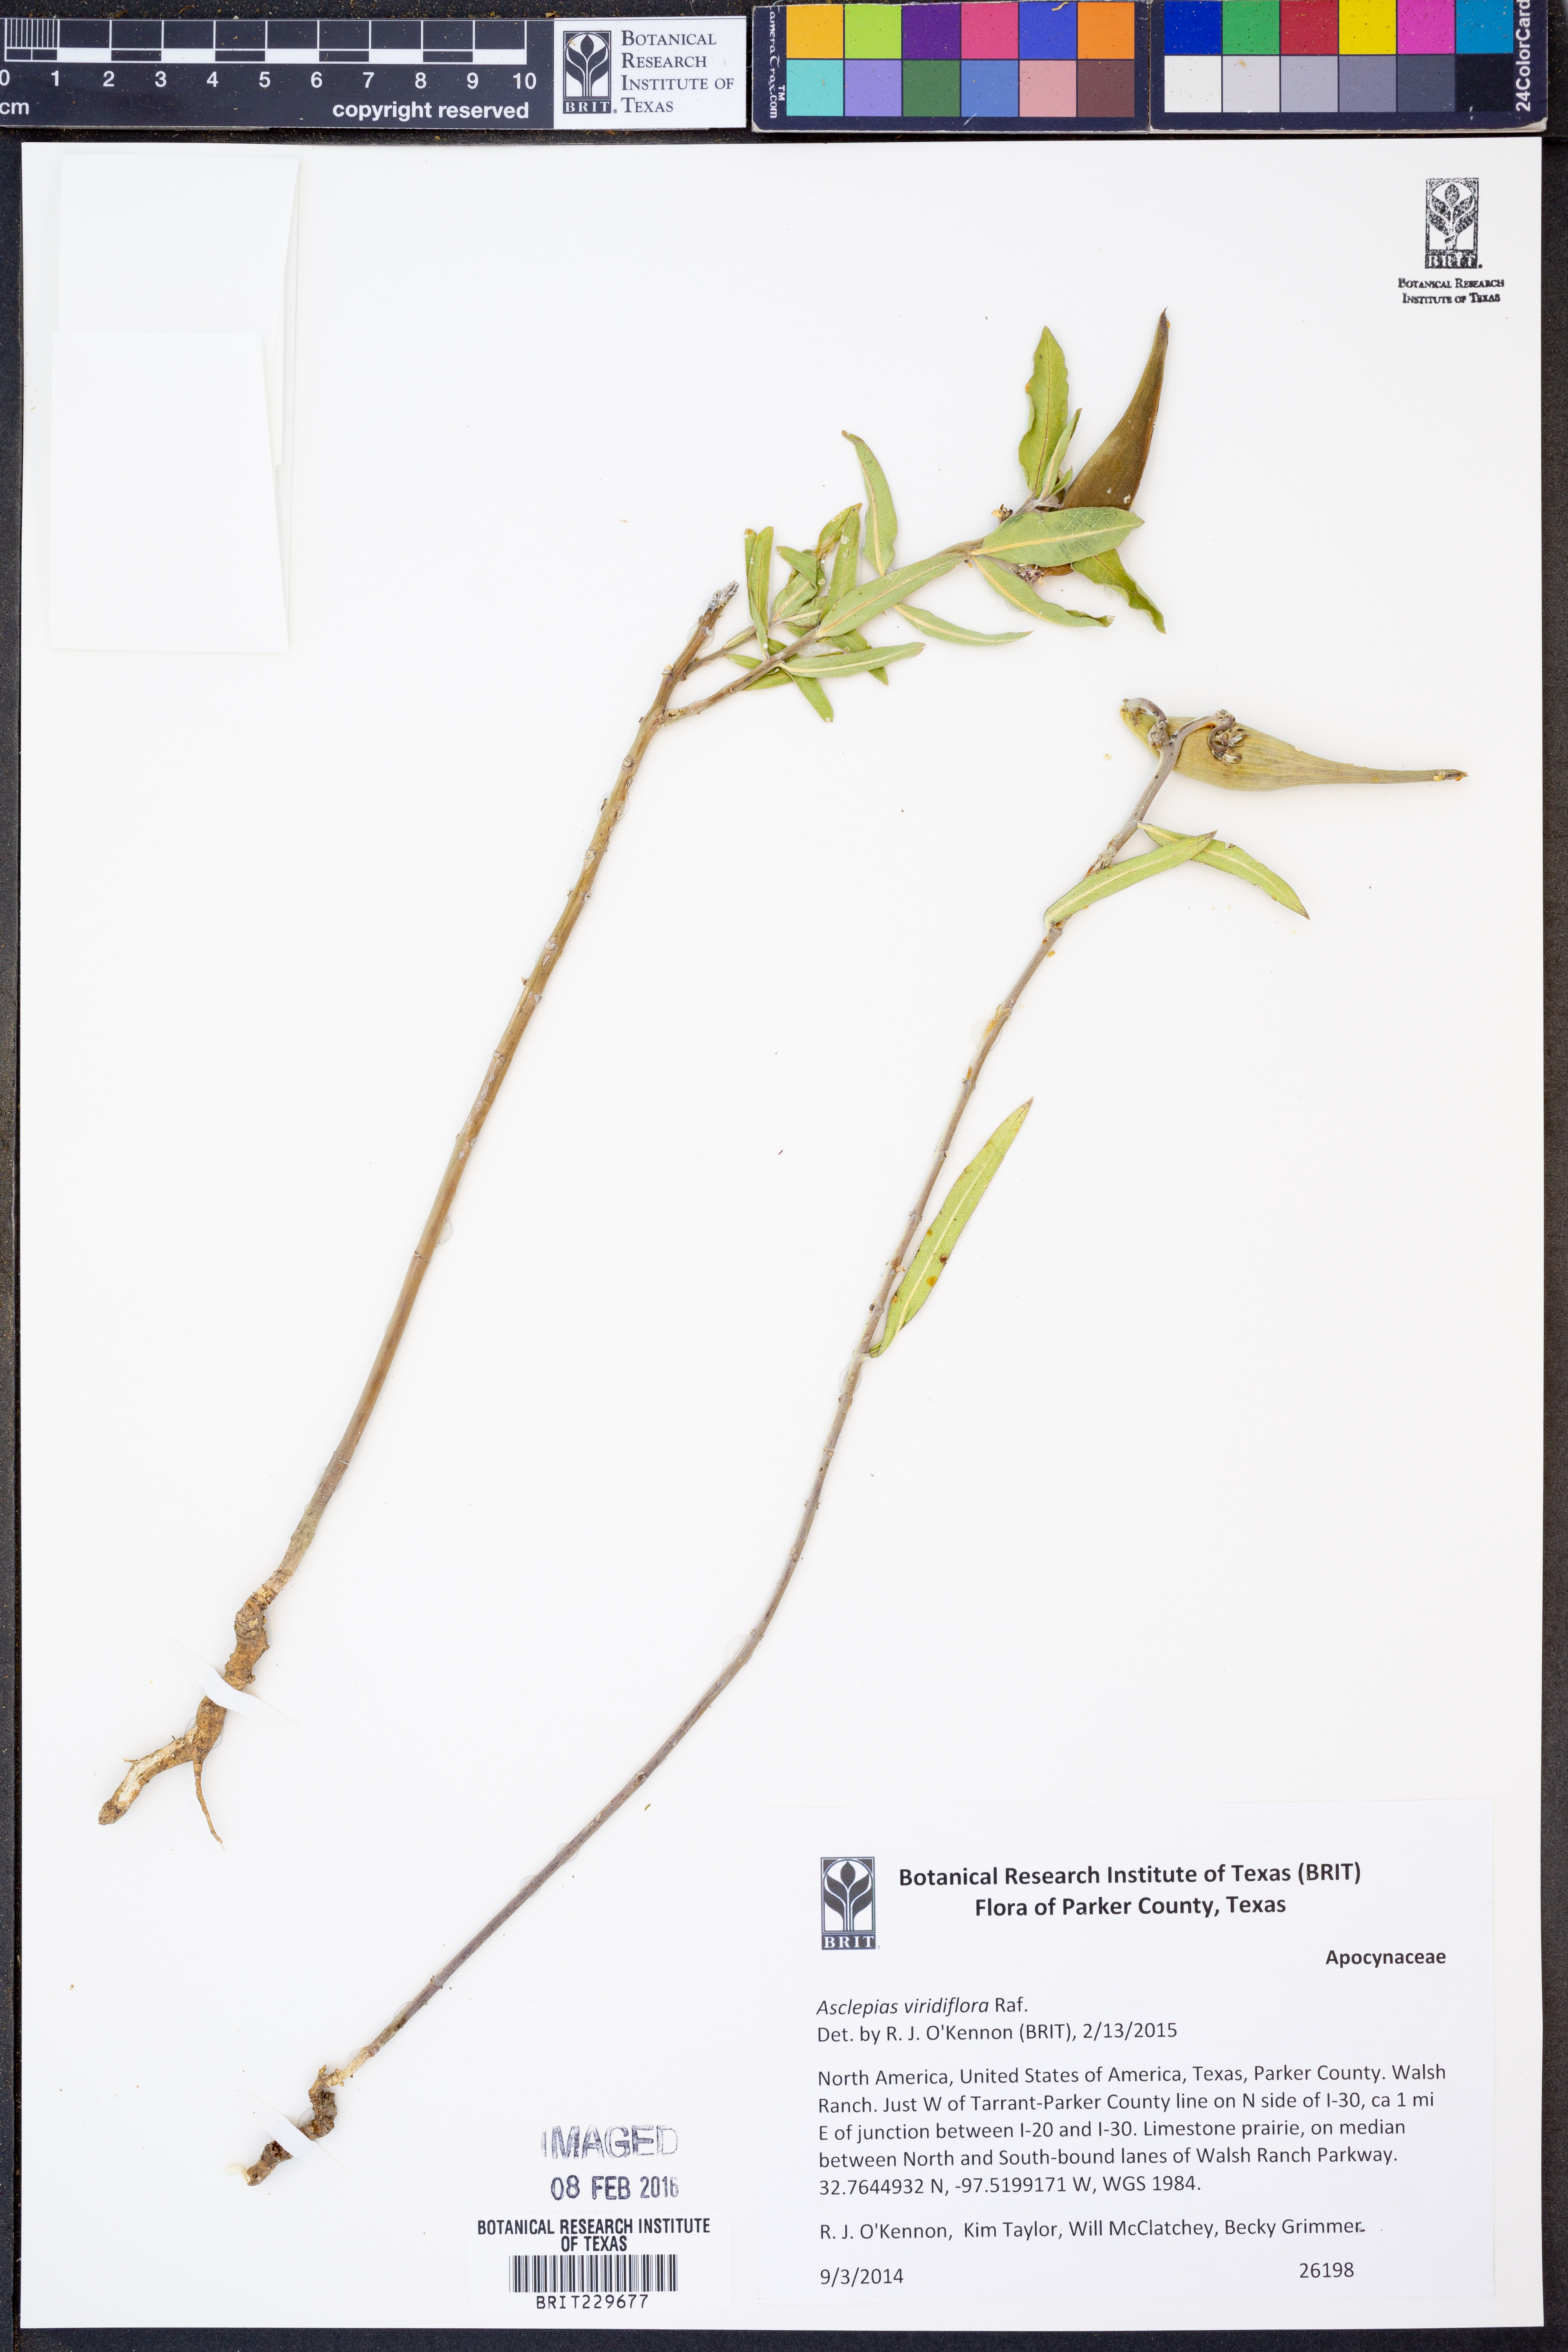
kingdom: Plantae
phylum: Tracheophyta
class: Magnoliopsida
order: Gentianales
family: Apocynaceae
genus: Asclepias
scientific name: Asclepias viridiflora
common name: Green comet milkweed
